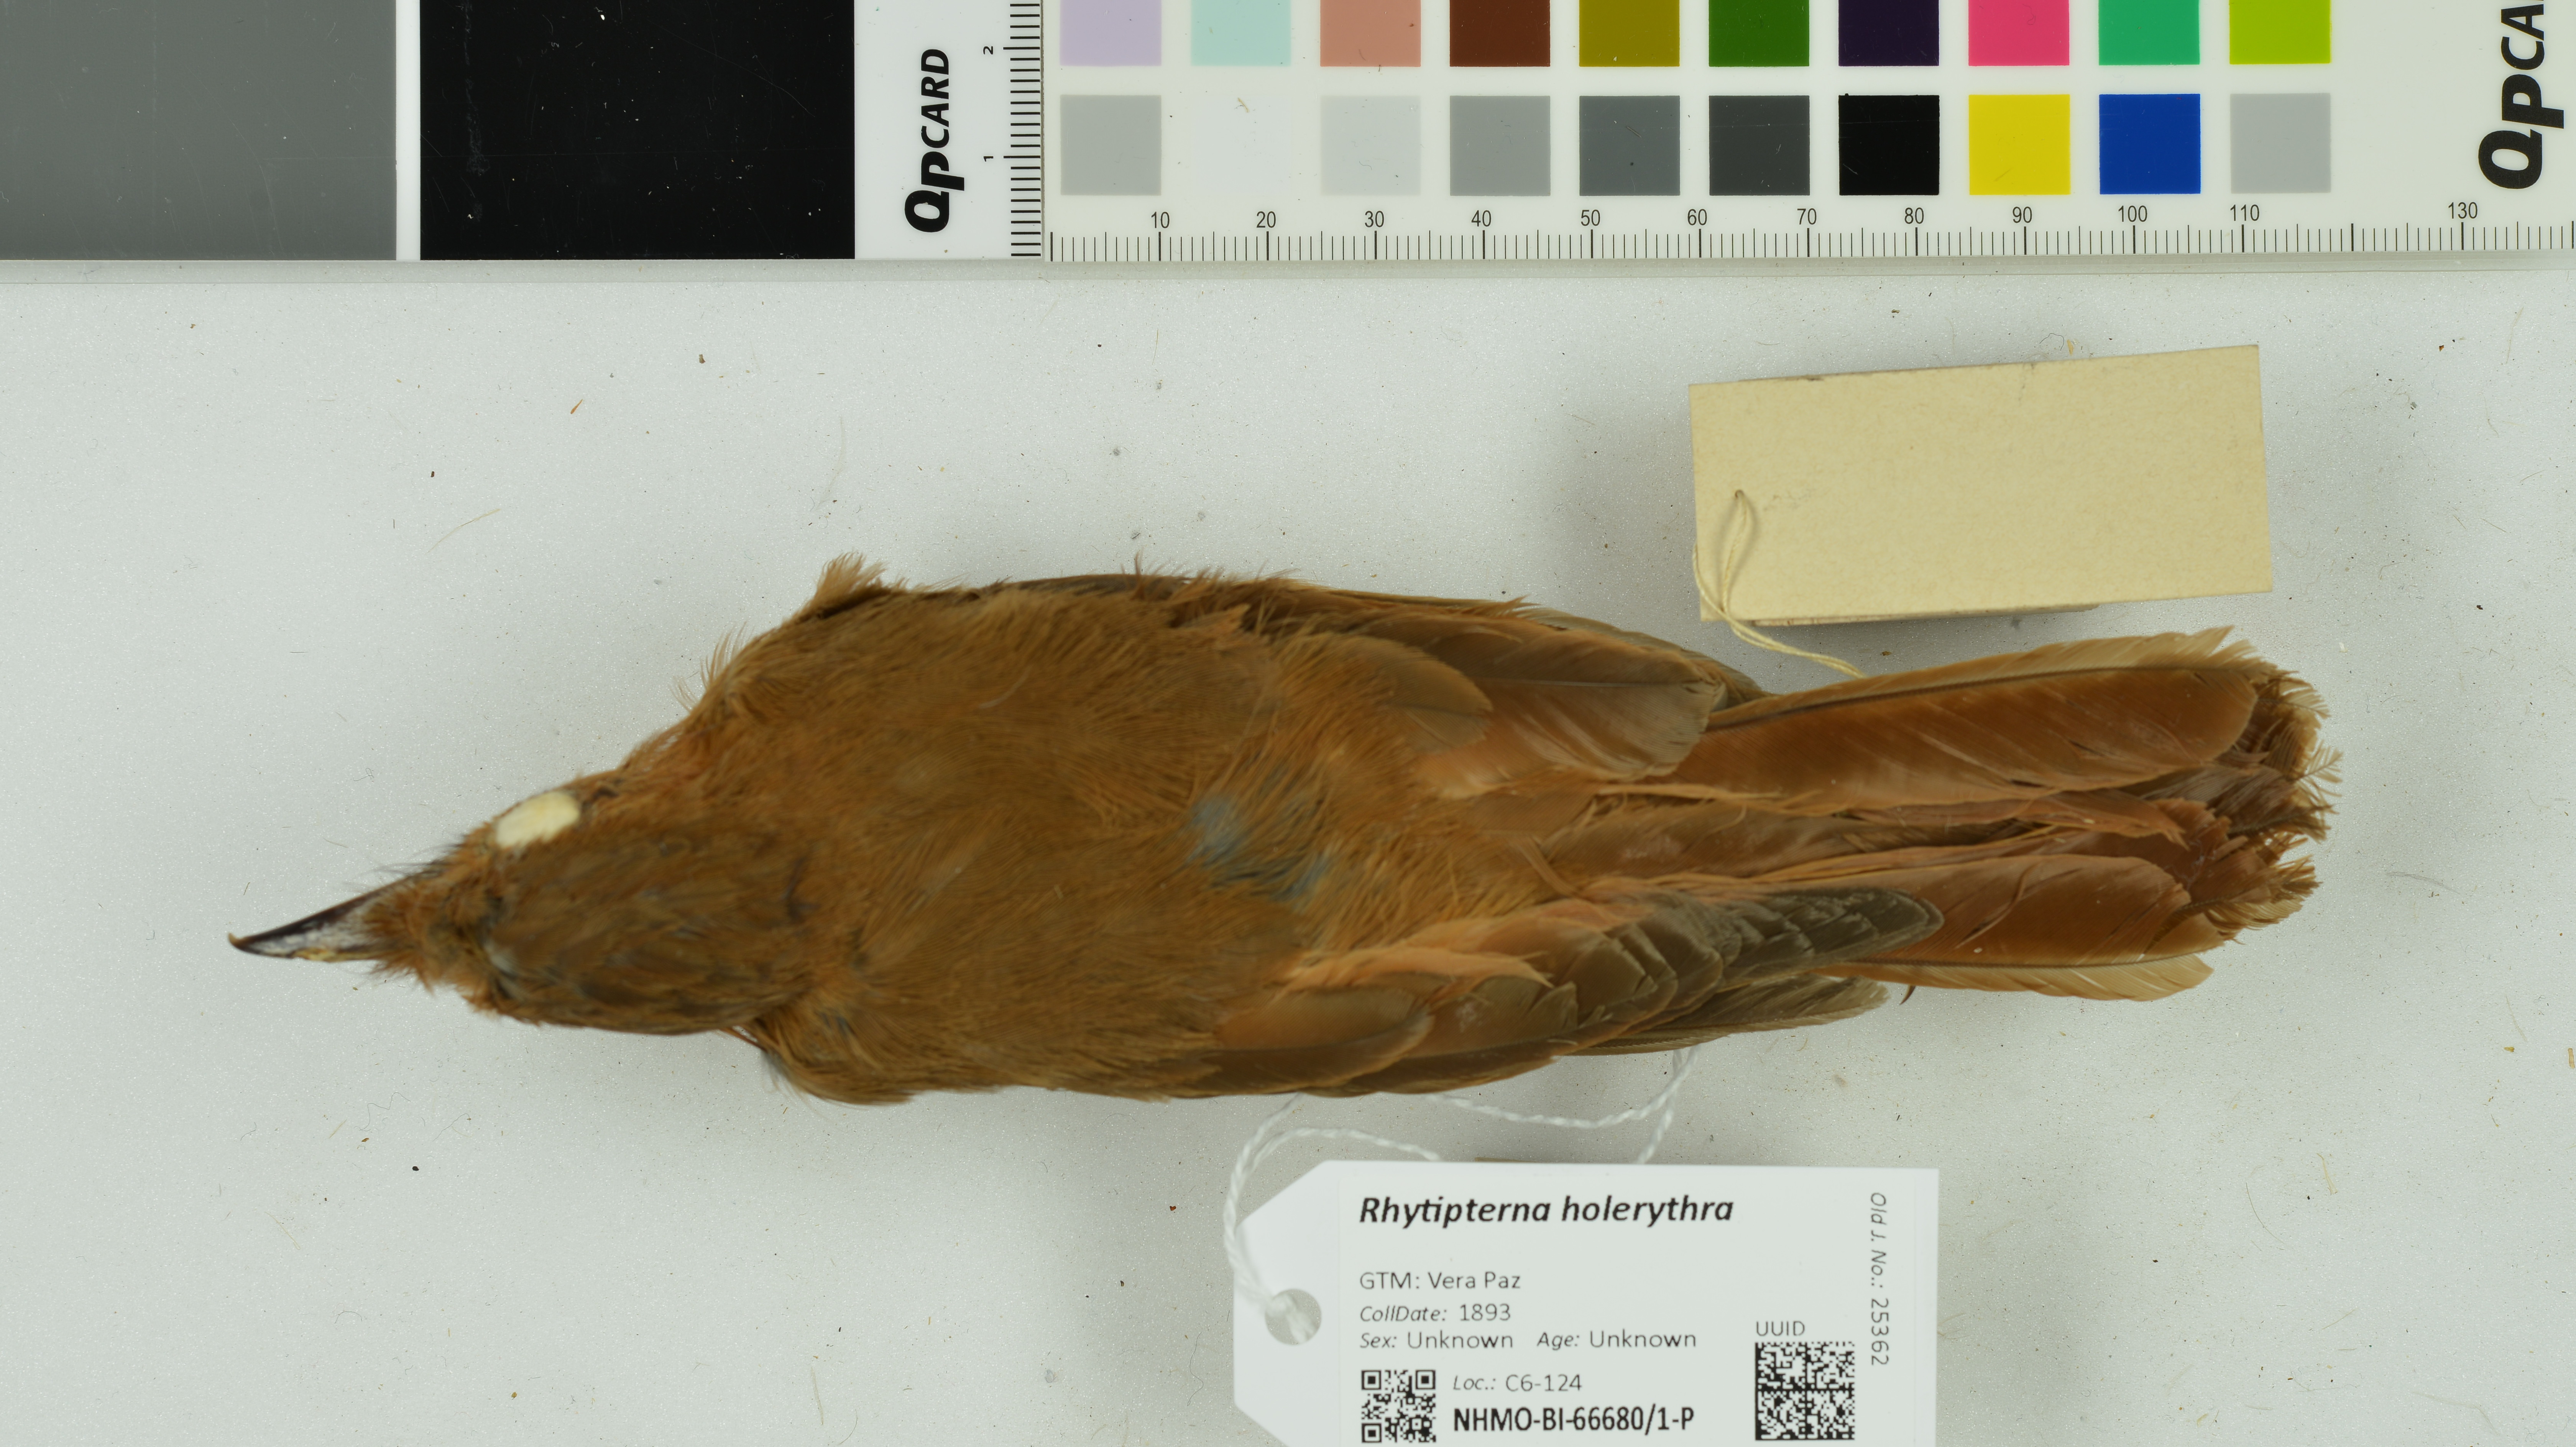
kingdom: Animalia
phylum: Chordata
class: Aves
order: Passeriformes
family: Tyrannidae
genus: Rhytipterna
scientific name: Rhytipterna holerythra
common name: Rufous mourner
